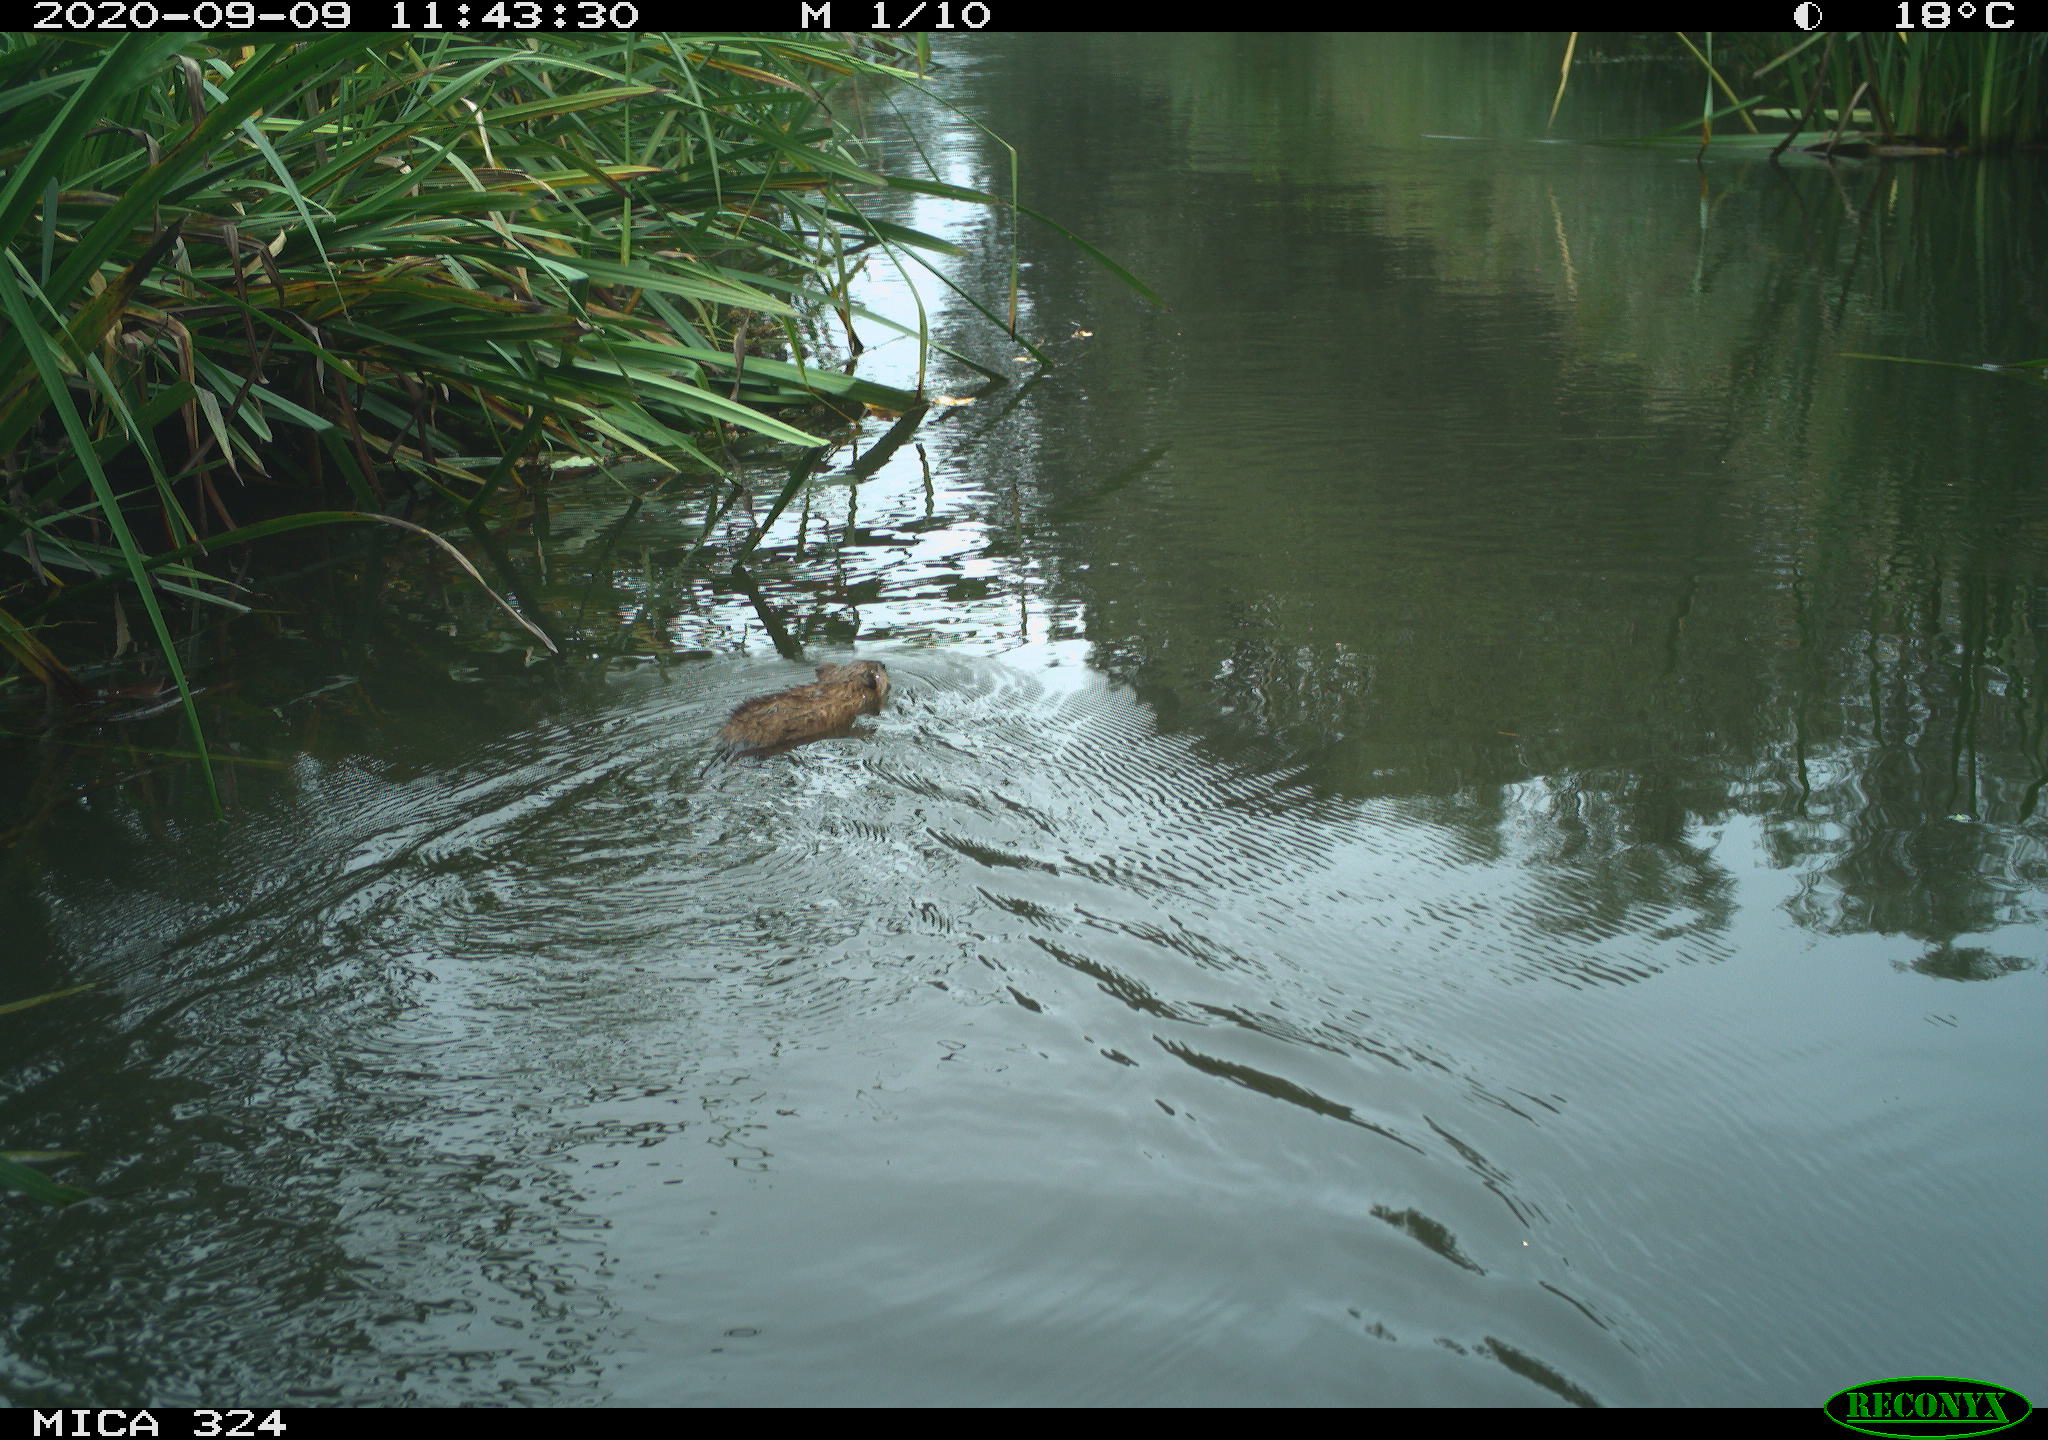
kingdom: Animalia
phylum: Chordata
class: Mammalia
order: Rodentia
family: Cricetidae
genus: Ondatra
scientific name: Ondatra zibethicus
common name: Muskrat
